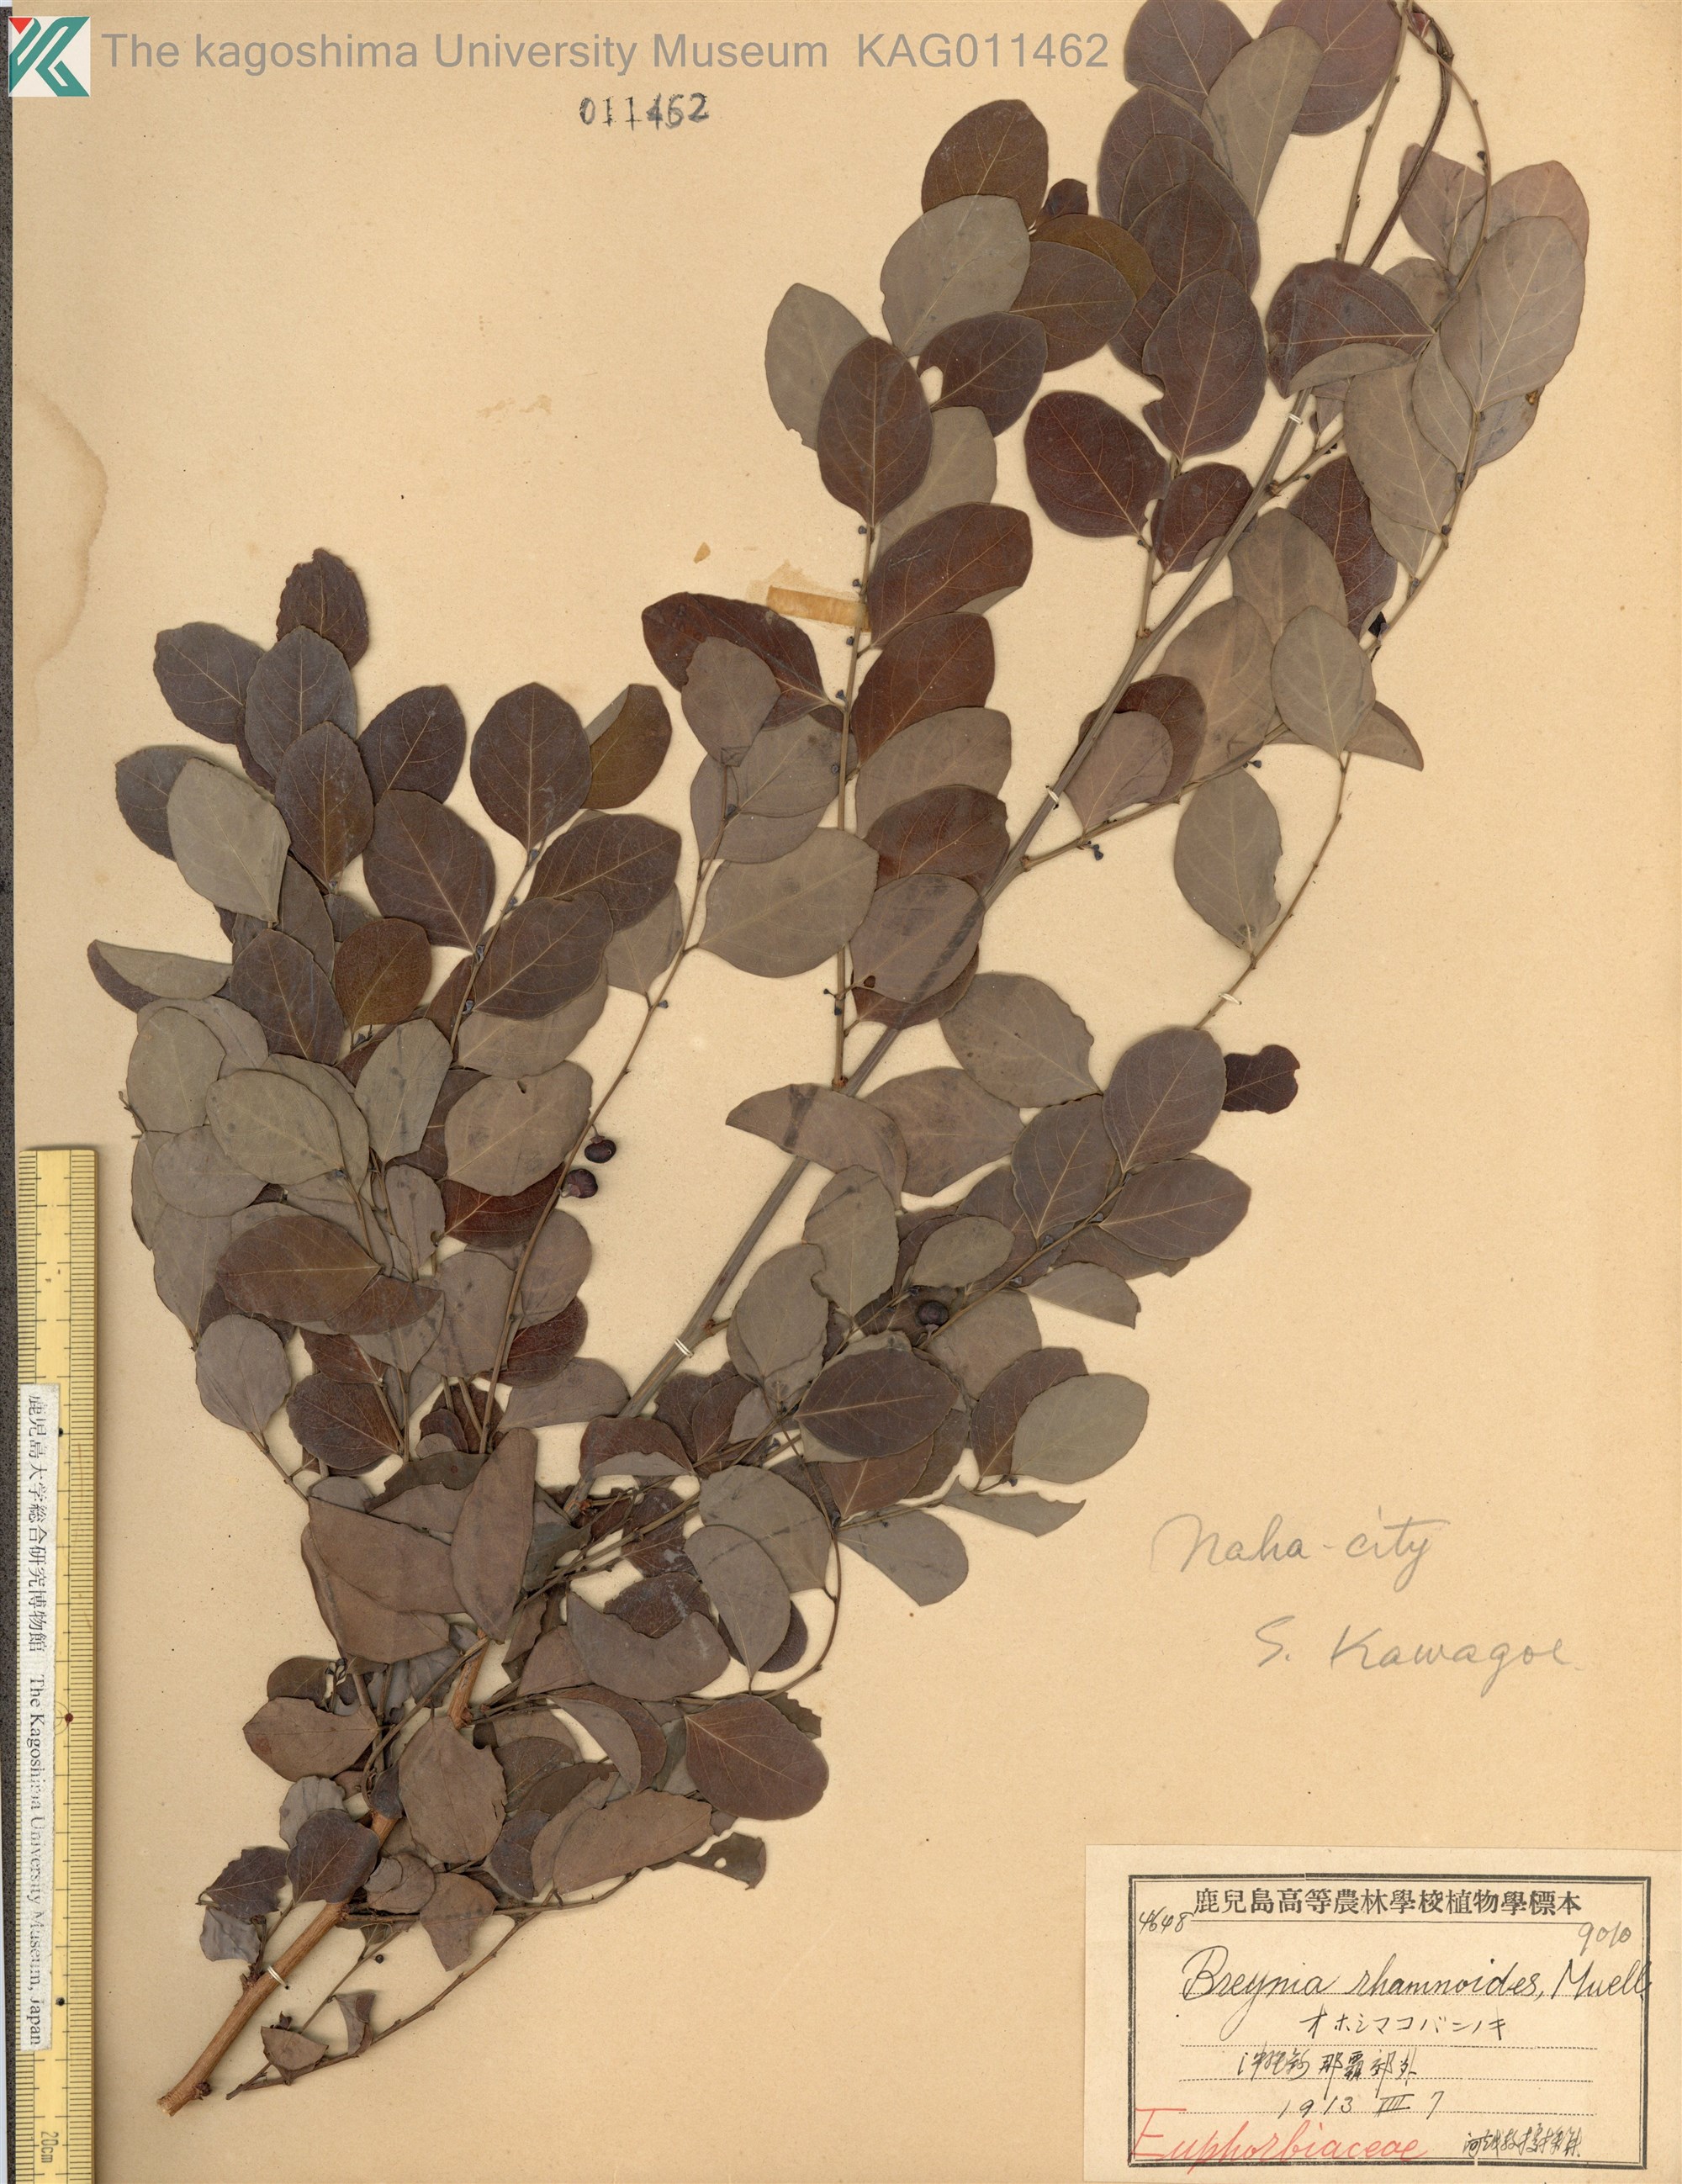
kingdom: Plantae
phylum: Tracheophyta
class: Magnoliopsida
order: Malpighiales
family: Phyllanthaceae
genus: Breynia
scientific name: Breynia vitis-idaea
